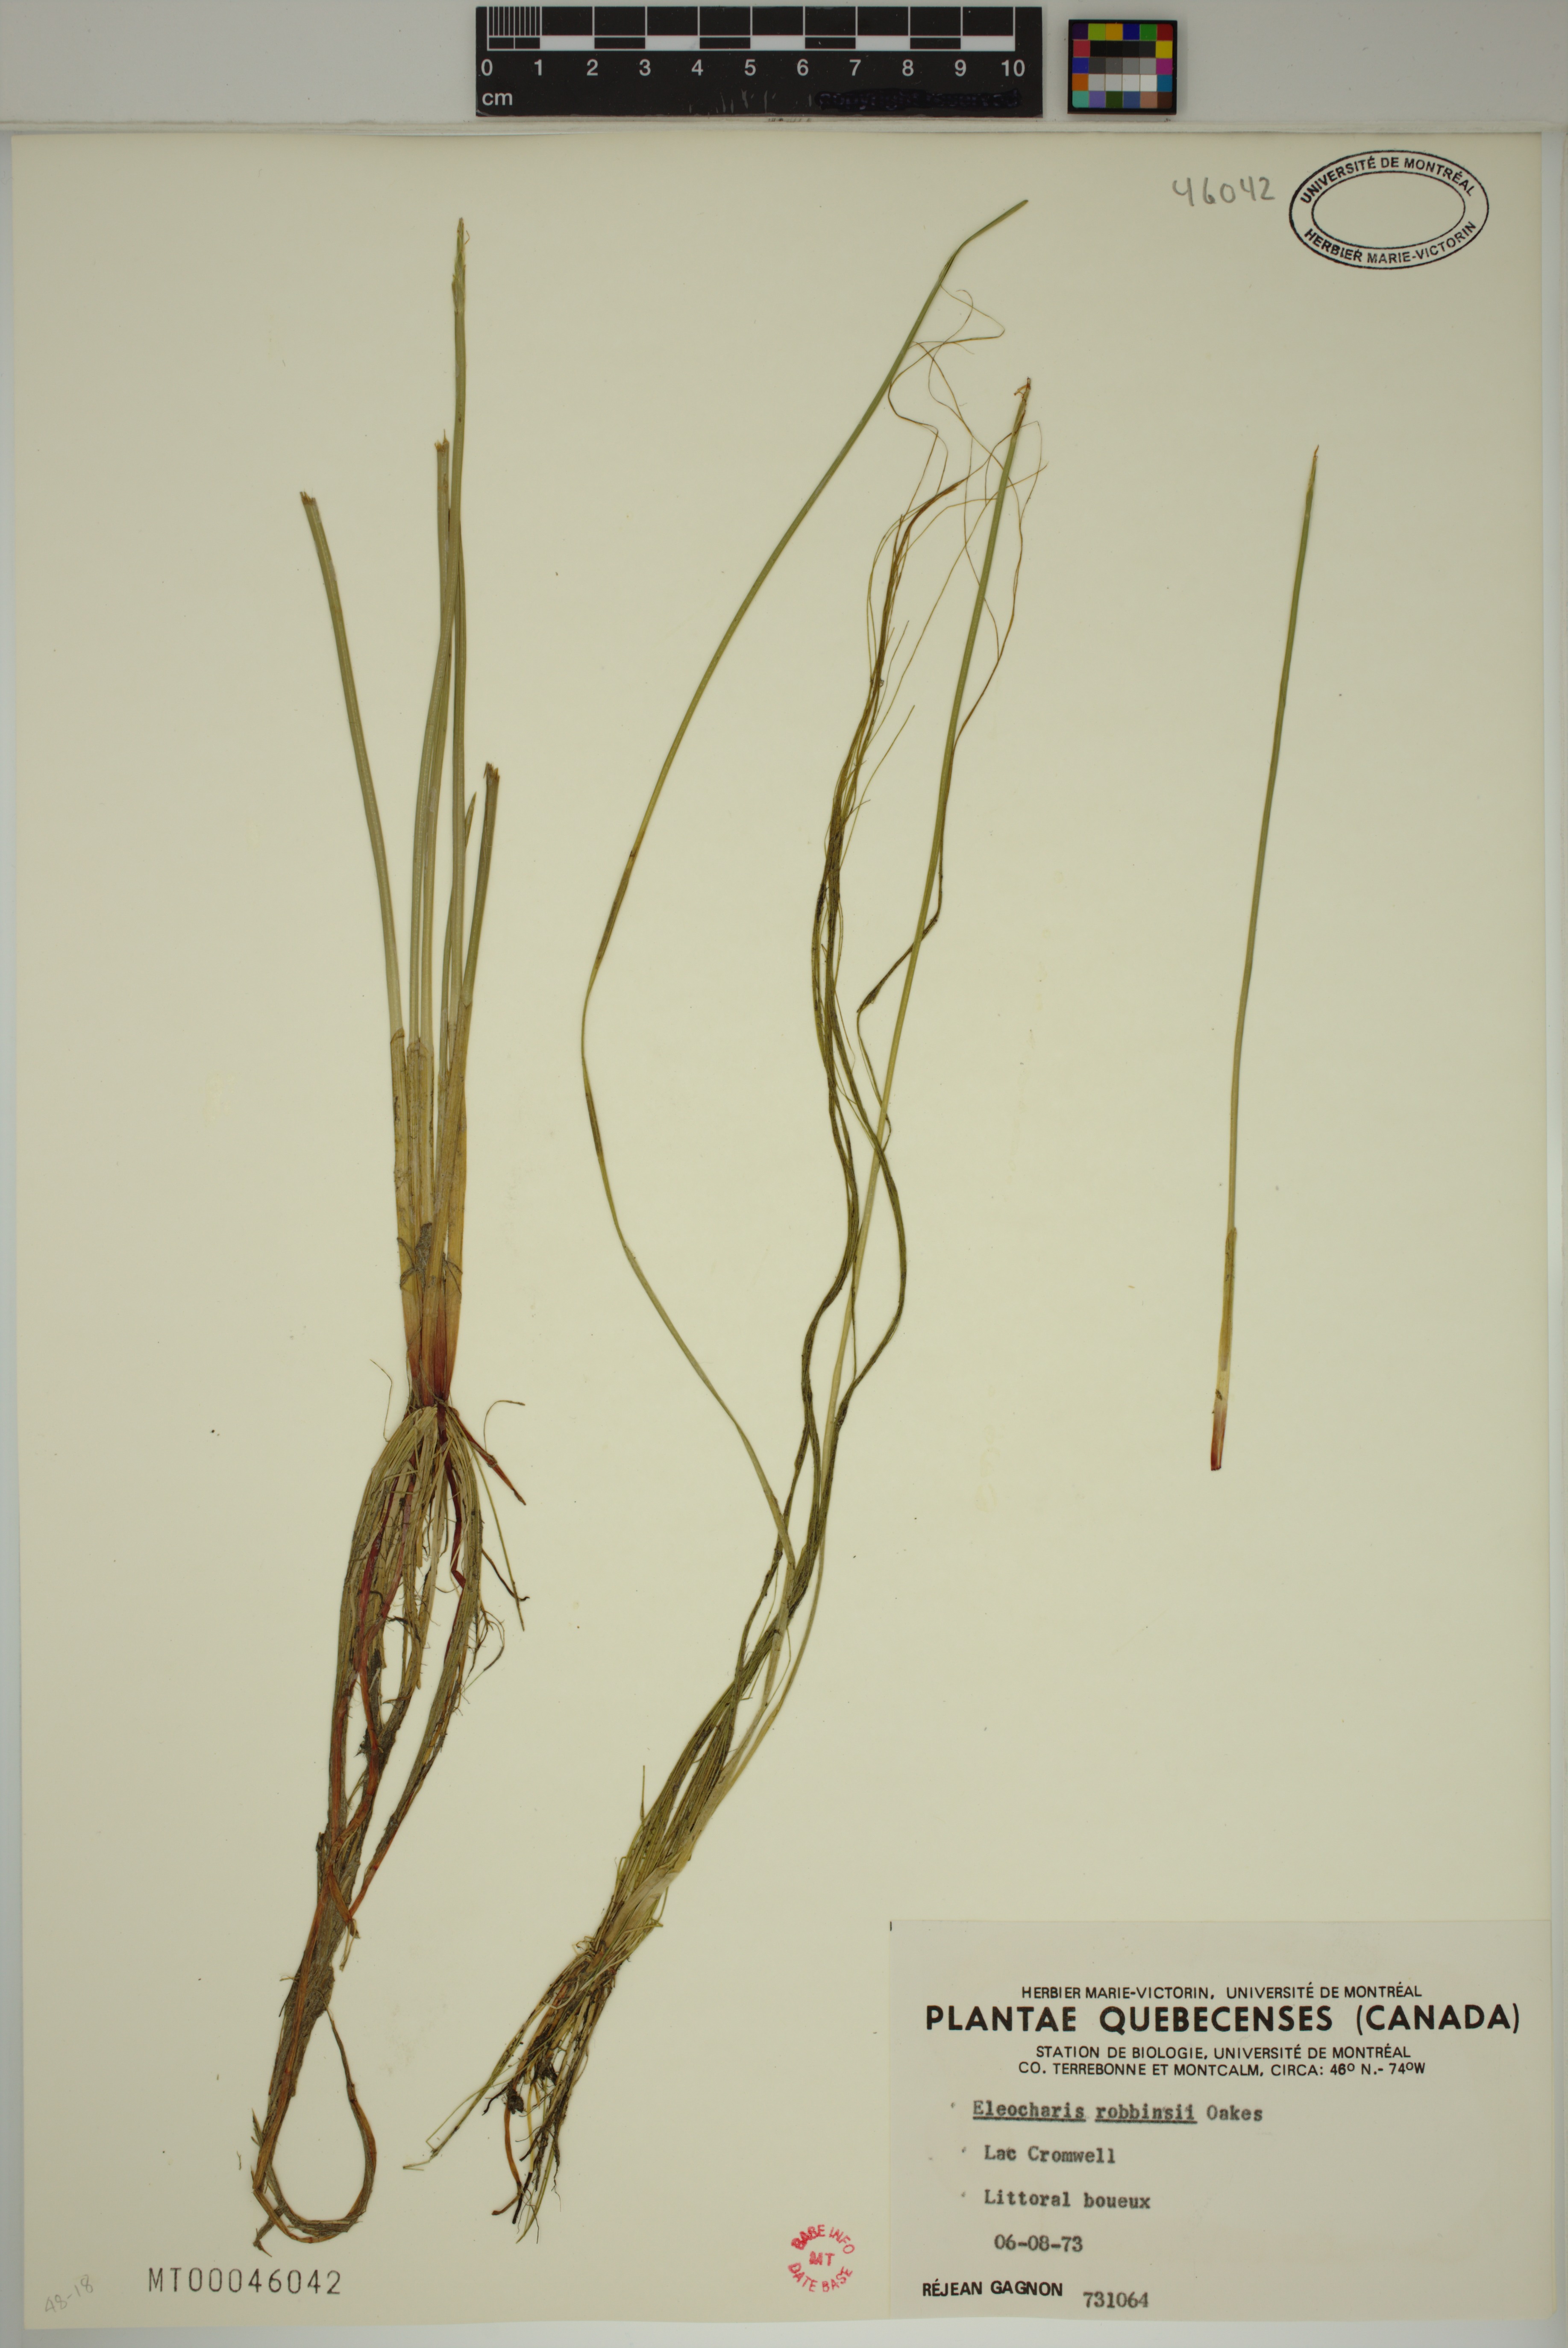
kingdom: Plantae
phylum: Tracheophyta
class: Liliopsida
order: Poales
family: Cyperaceae
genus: Eleocharis
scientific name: Eleocharis robbinsii
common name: Robbins' spikerush
